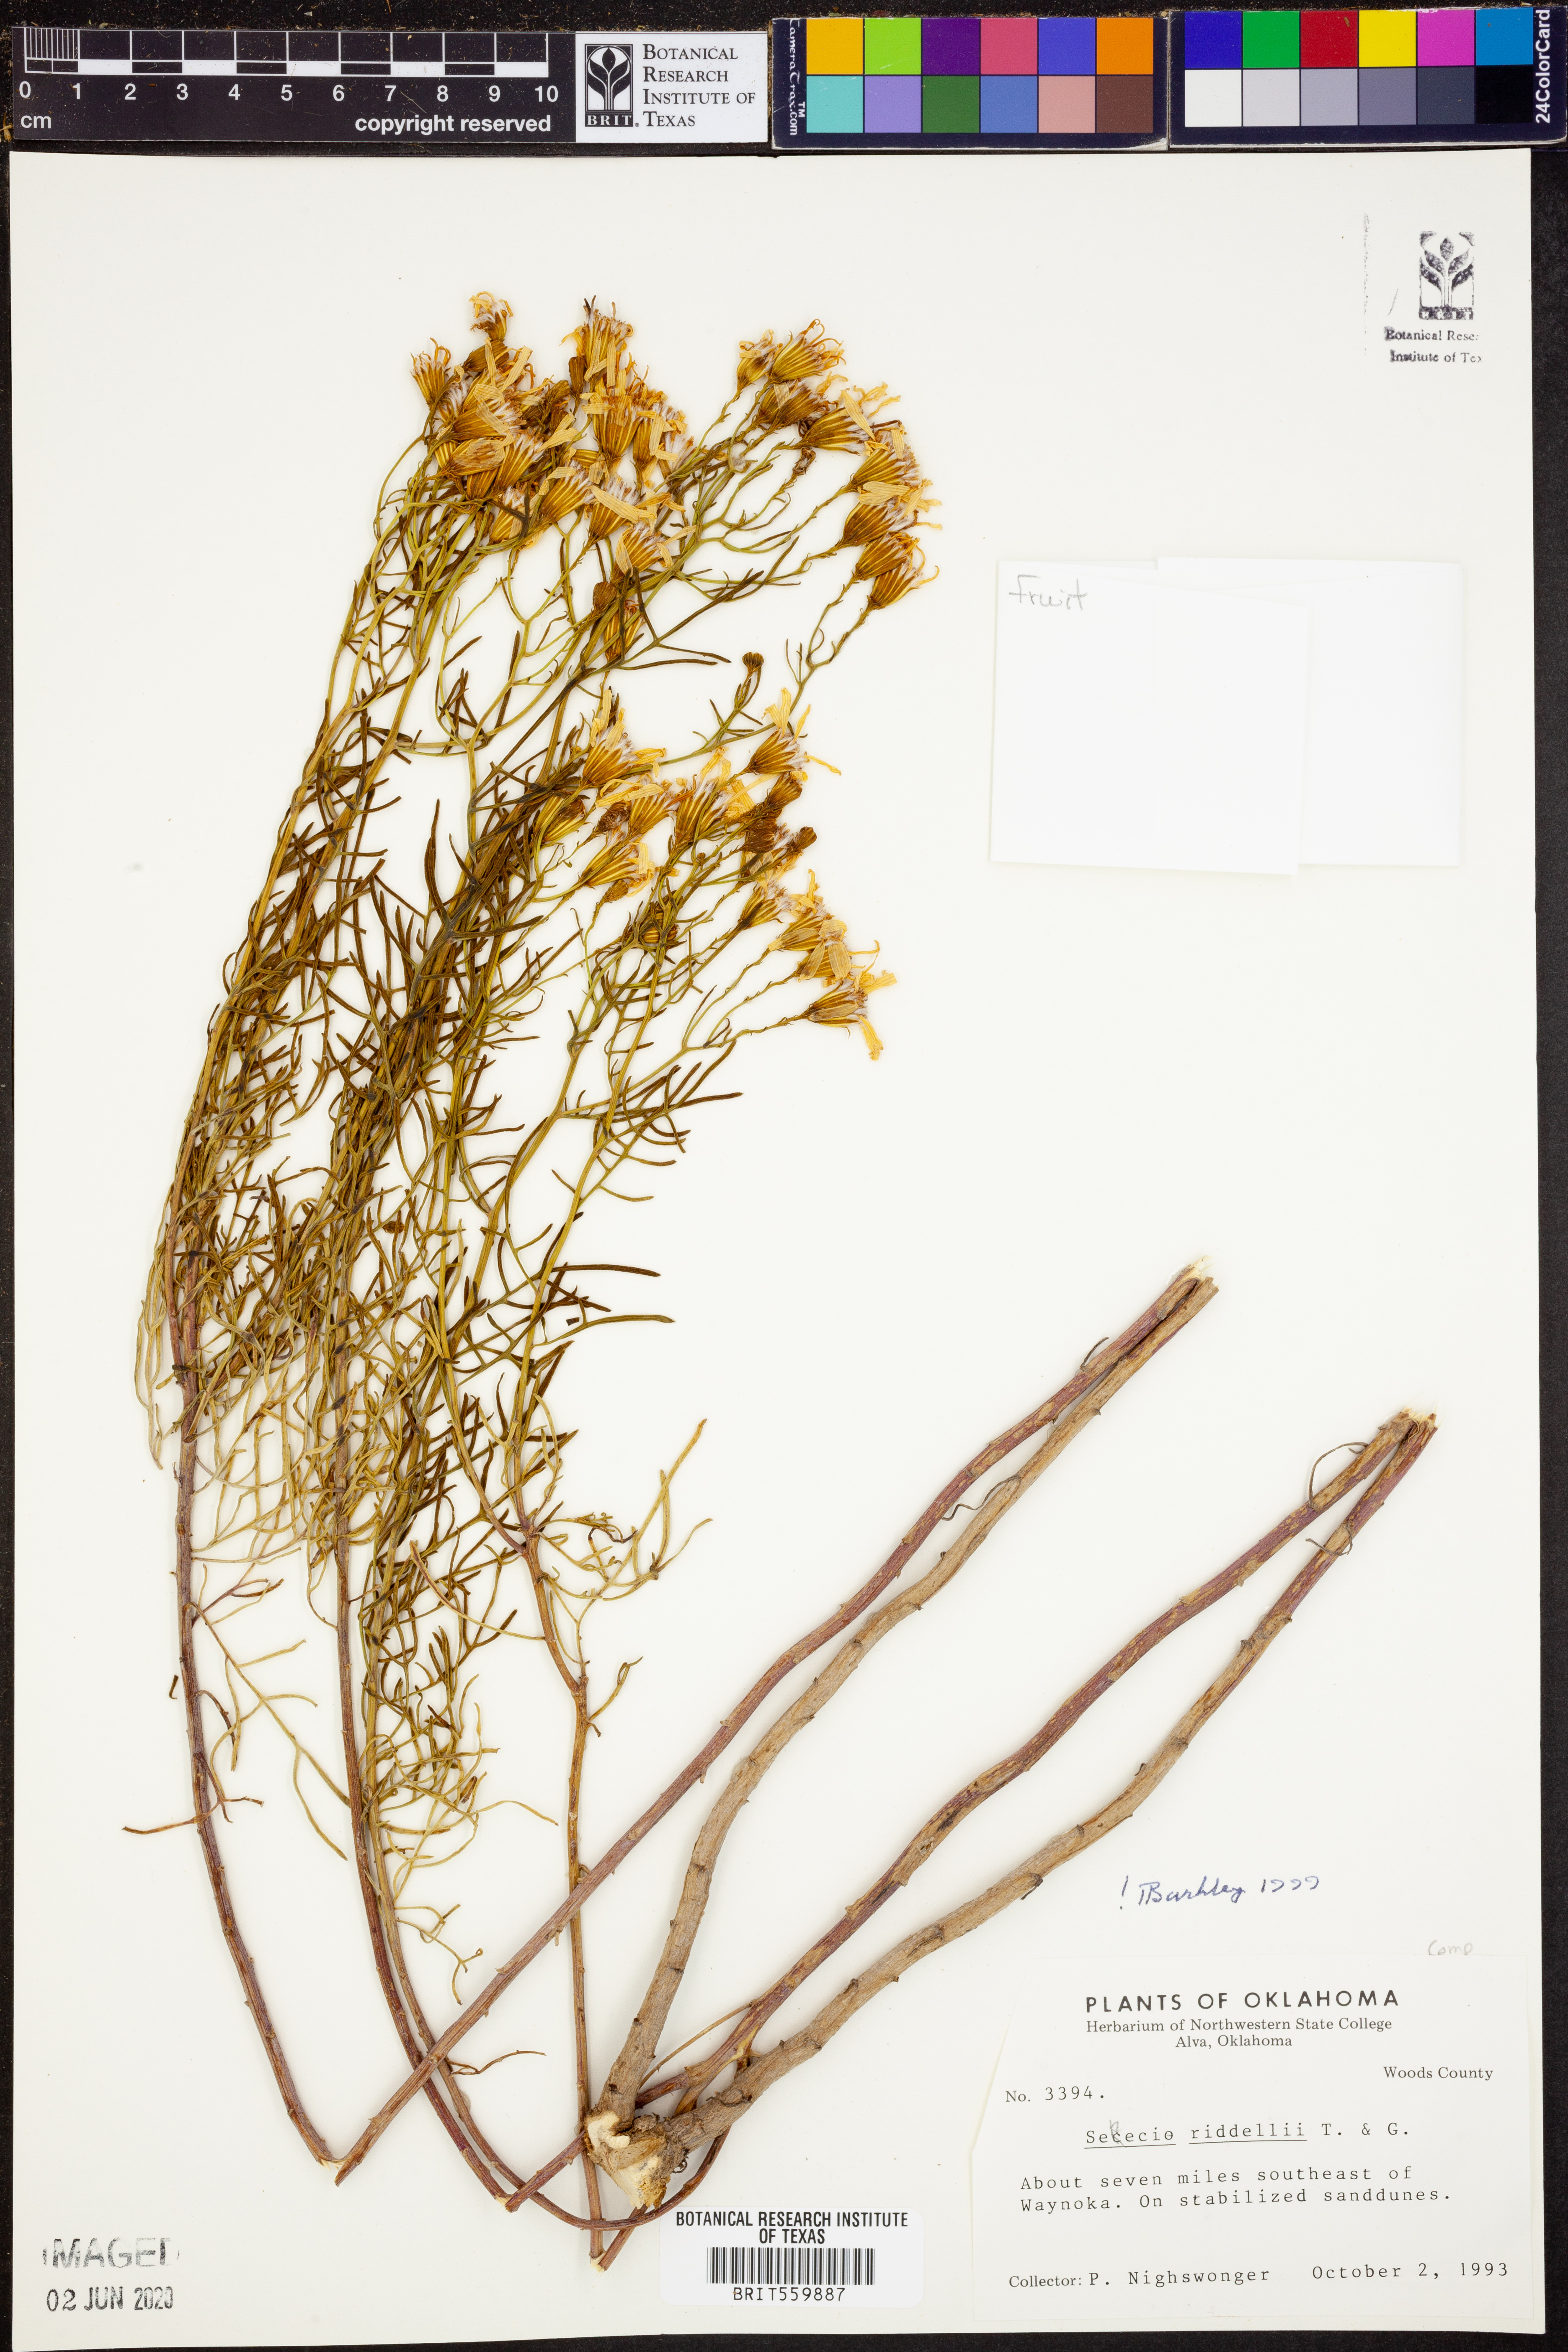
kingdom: Plantae
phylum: Tracheophyta
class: Magnoliopsida
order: Asterales
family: Asteraceae
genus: Senecio
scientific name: Senecio riddellii
